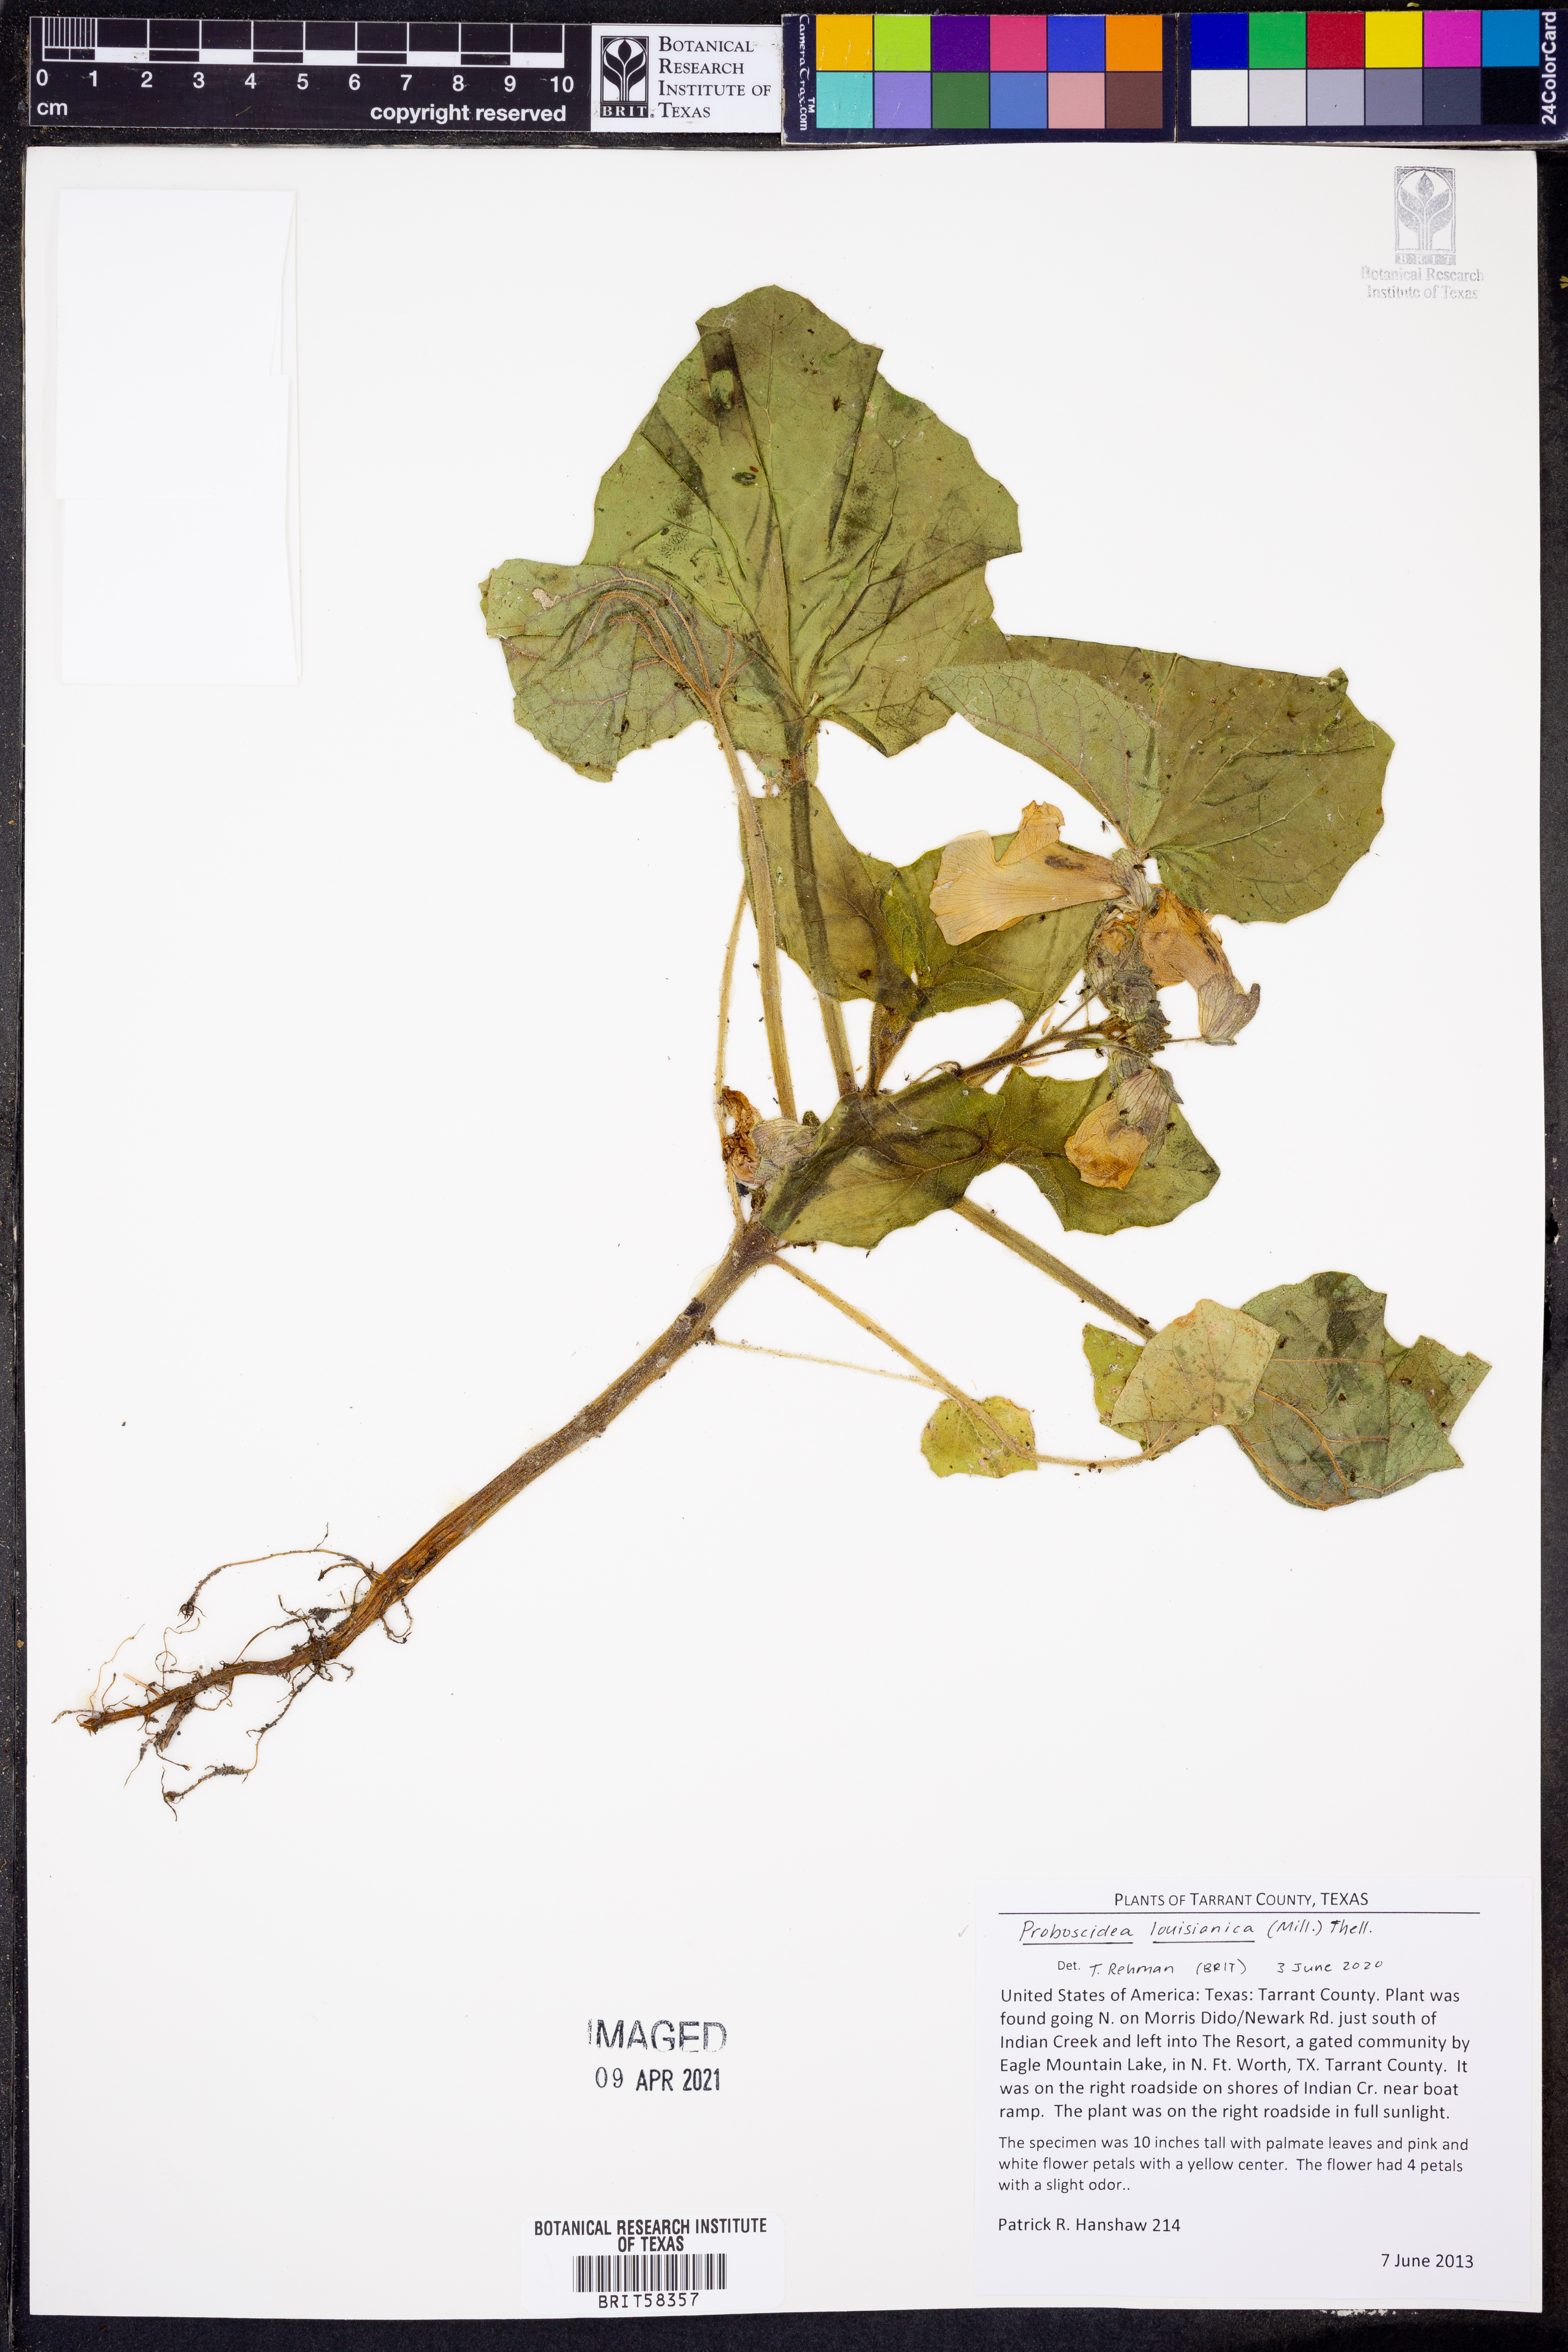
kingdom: Plantae
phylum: Tracheophyta
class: Magnoliopsida
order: Lamiales
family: Martyniaceae
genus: Proboscidea
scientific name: Proboscidea louisianica
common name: Elephant tusks
